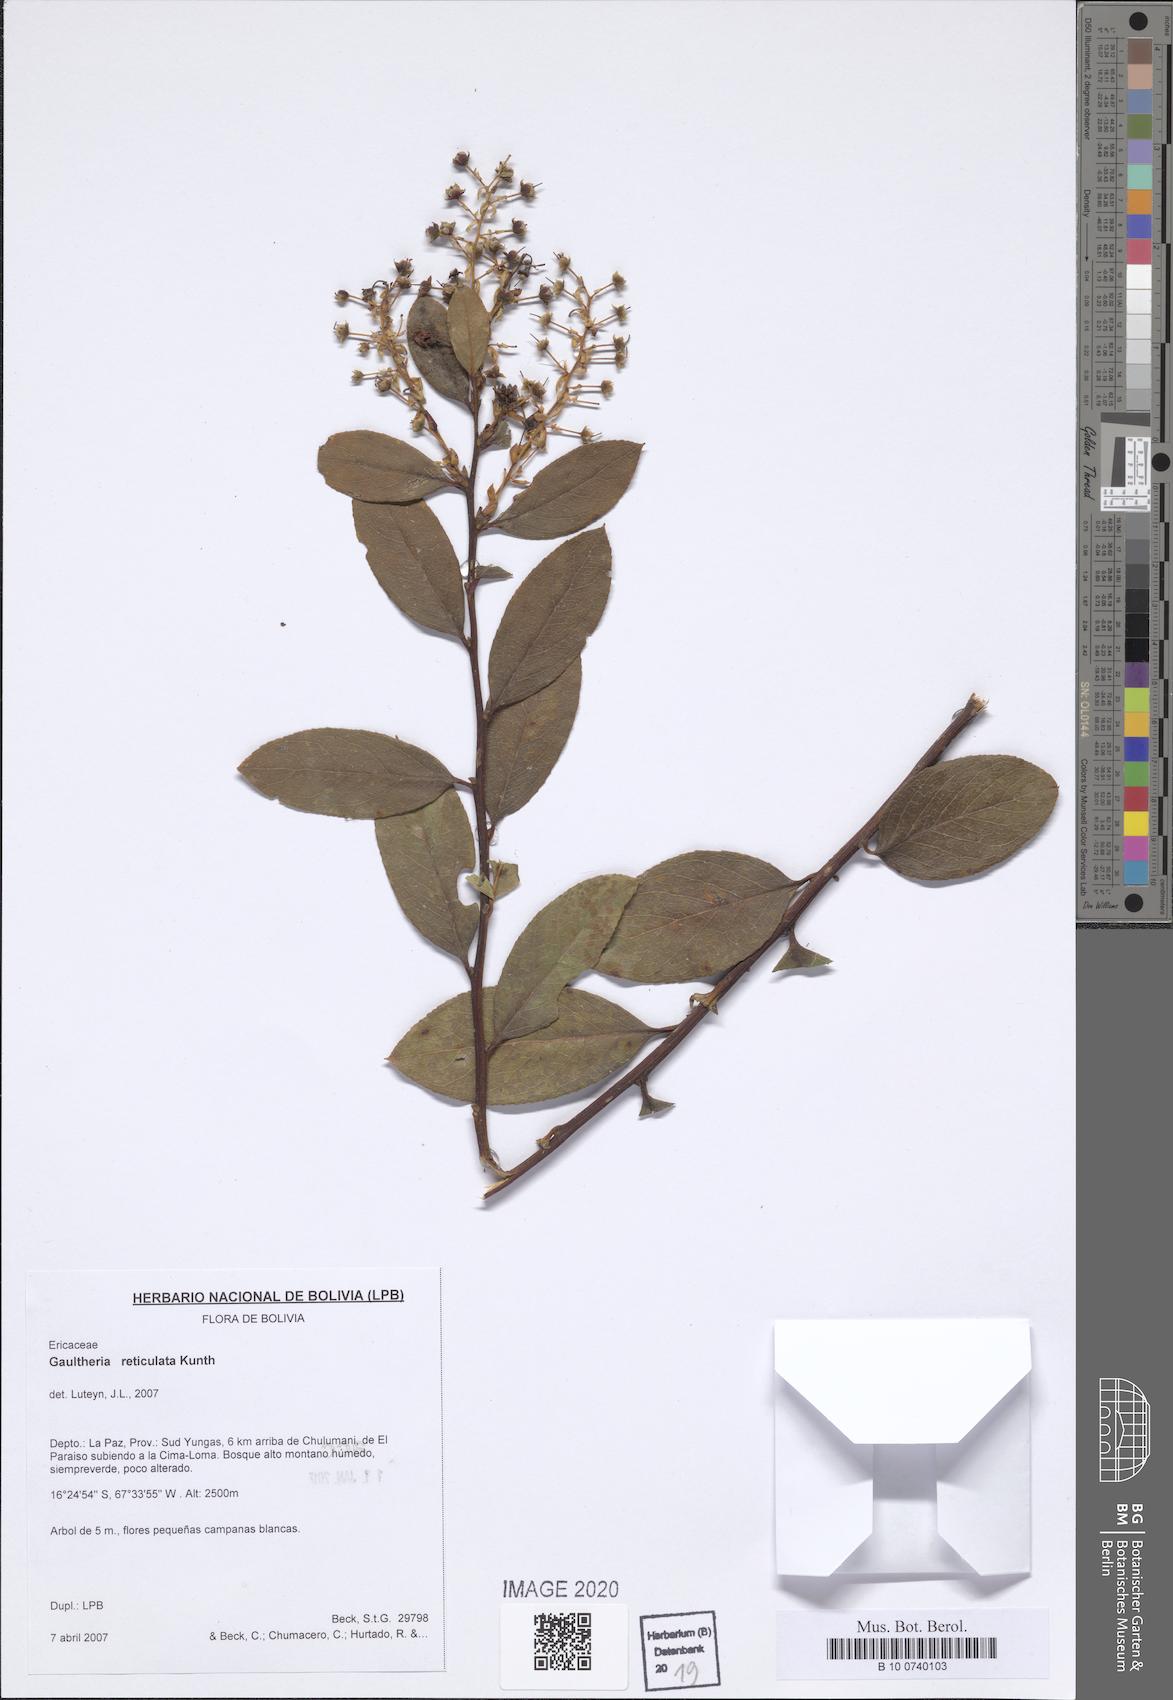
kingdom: Plantae
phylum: Tracheophyta
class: Magnoliopsida
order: Ericales
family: Ericaceae
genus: Gaultheria
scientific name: Gaultheria reticulata
